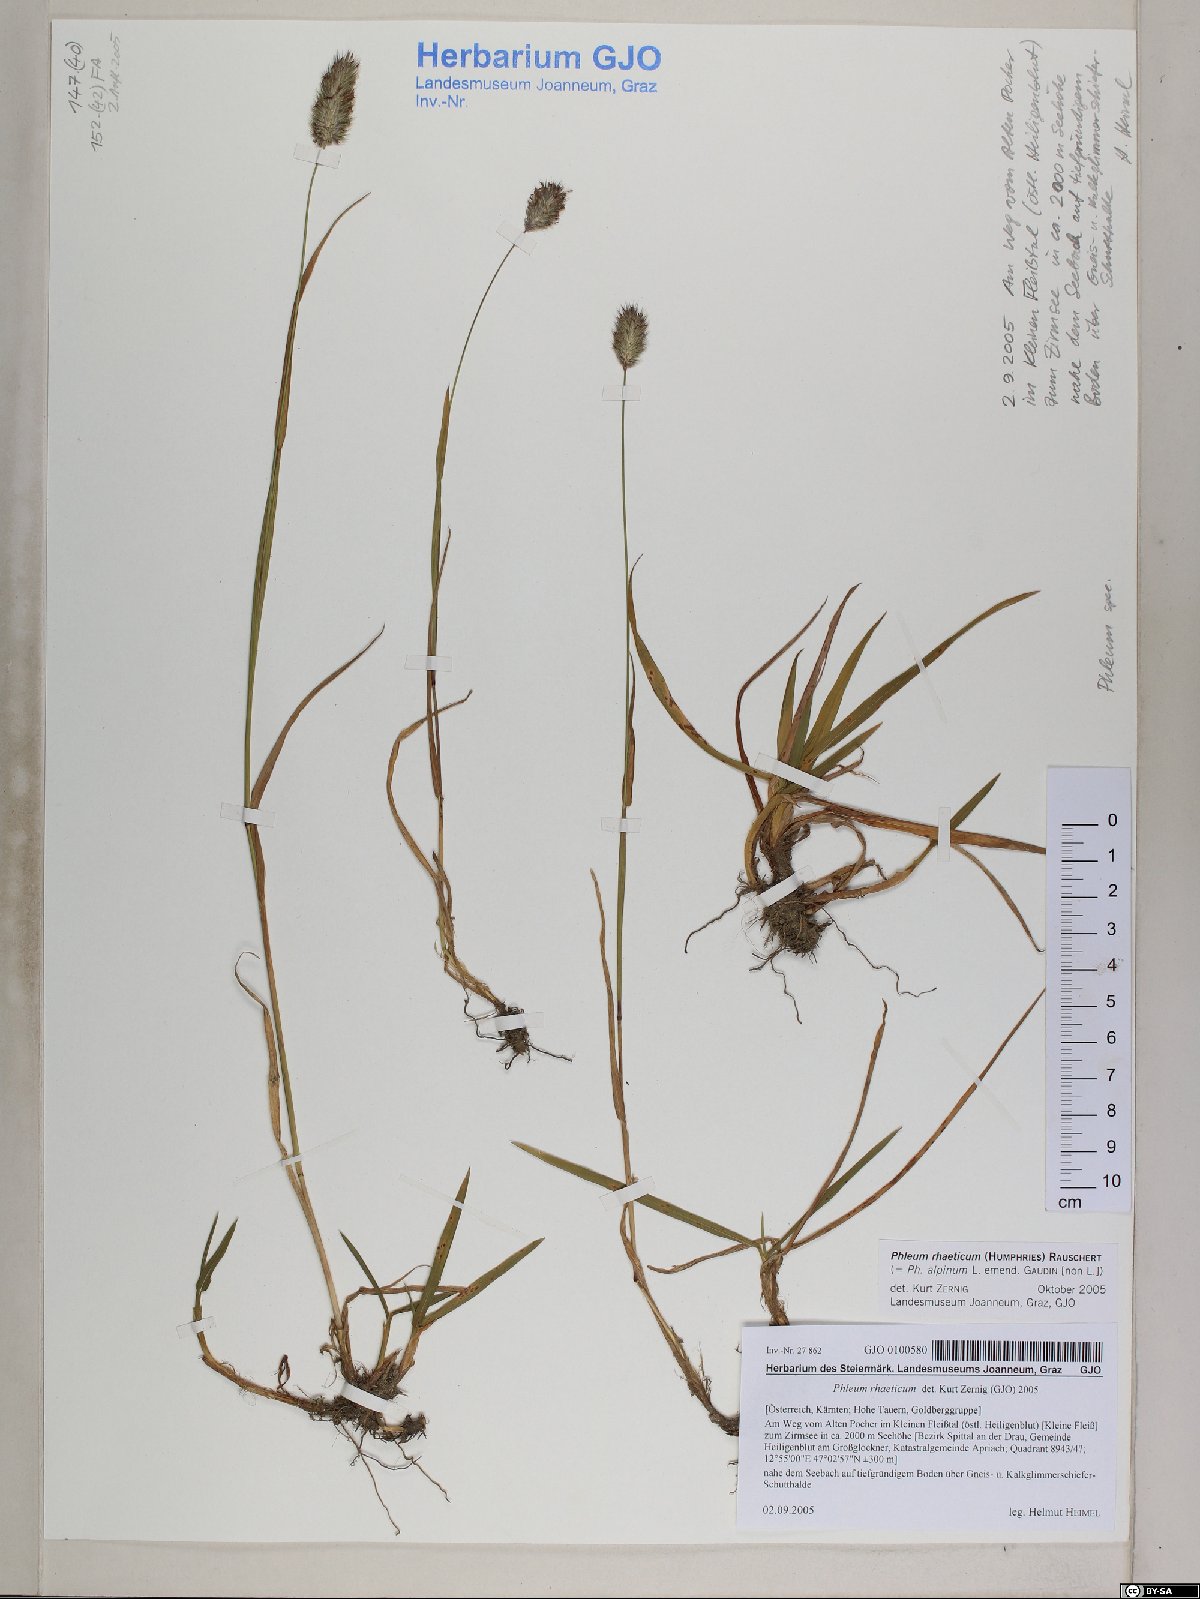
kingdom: Plantae
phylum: Tracheophyta
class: Liliopsida
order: Poales
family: Poaceae
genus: Phleum
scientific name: Phleum alpinum
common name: Alpine cat's-tail
